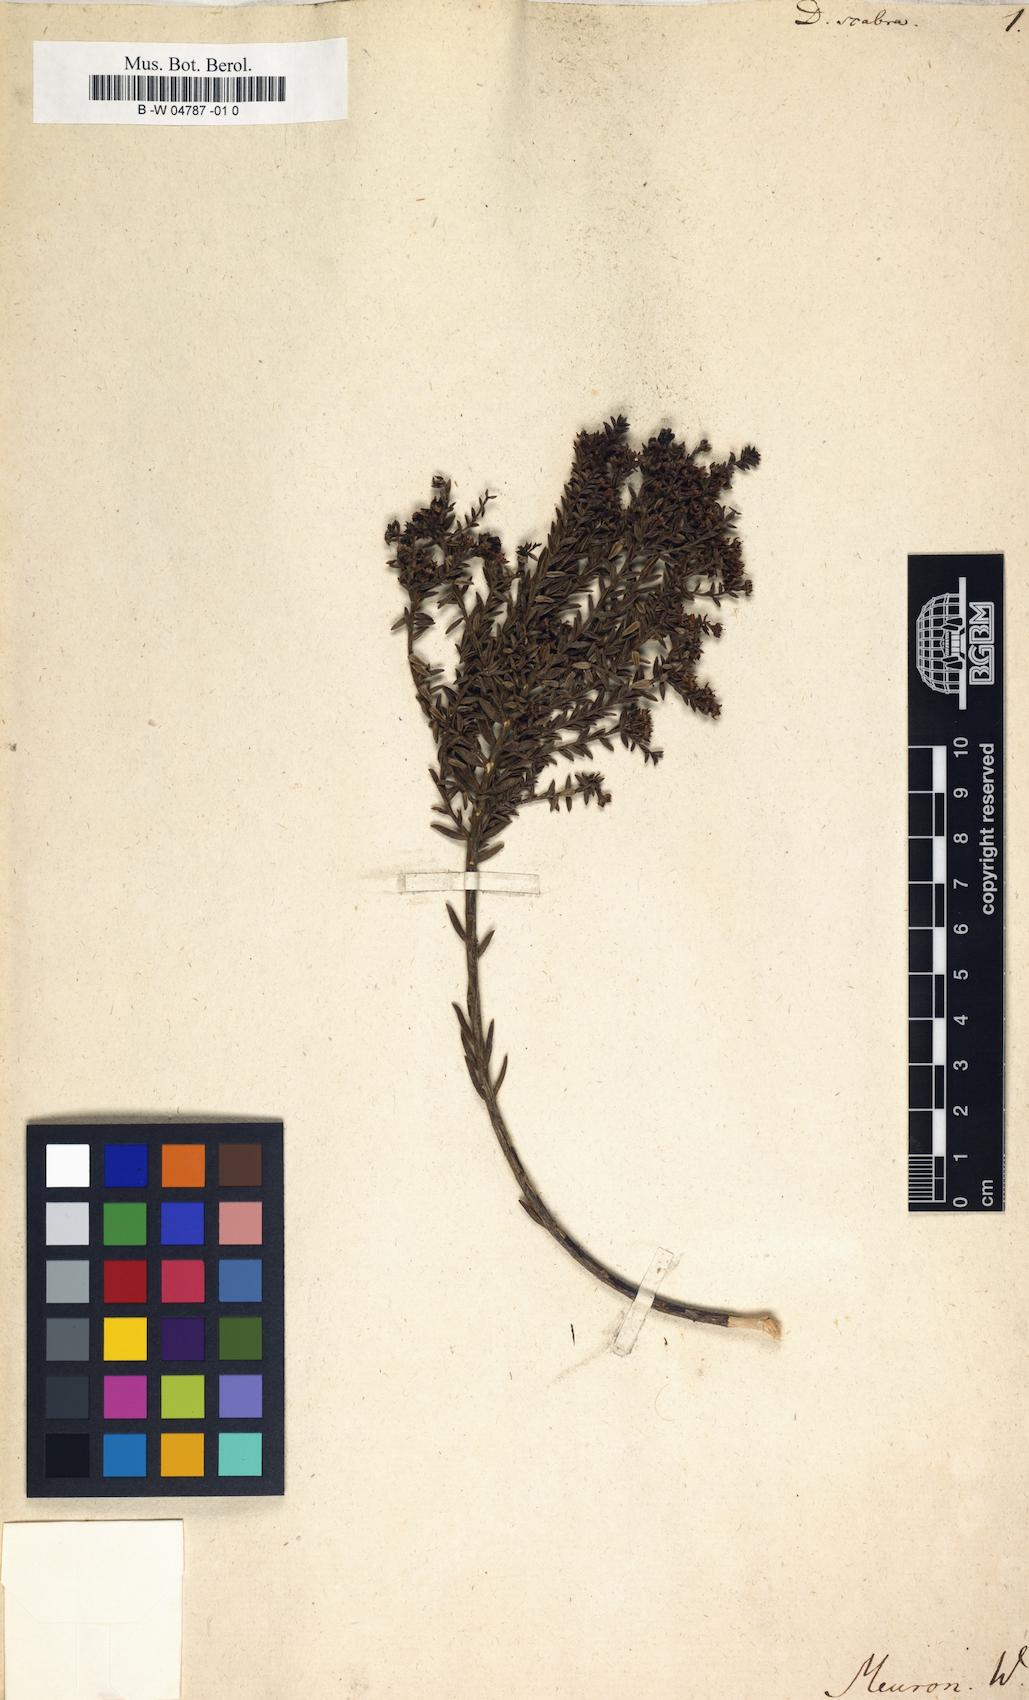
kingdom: Plantae
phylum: Tracheophyta
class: Magnoliopsida
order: Sapindales
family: Rutaceae
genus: Diosma
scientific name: Diosma oppositifolia
